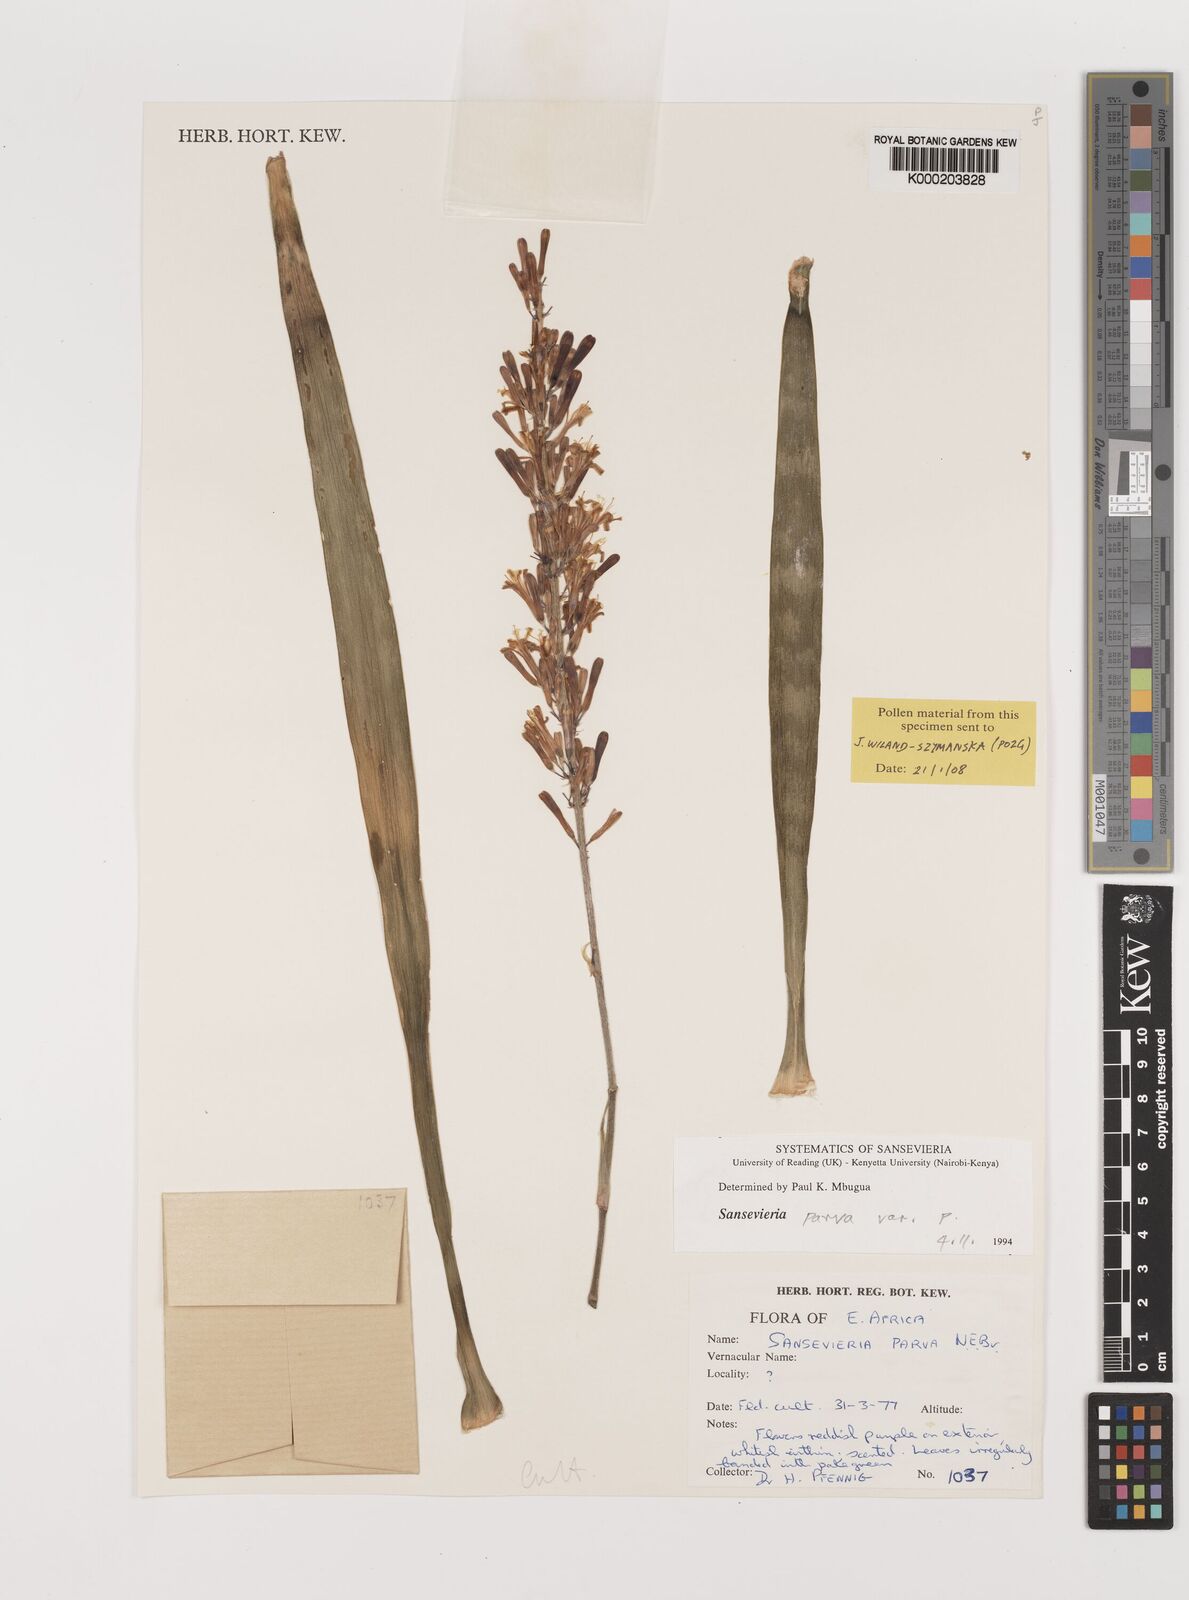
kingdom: Plantae
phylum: Tracheophyta
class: Liliopsida
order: Asparagales
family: Asparagaceae
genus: Dracaena
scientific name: Dracaena parva
